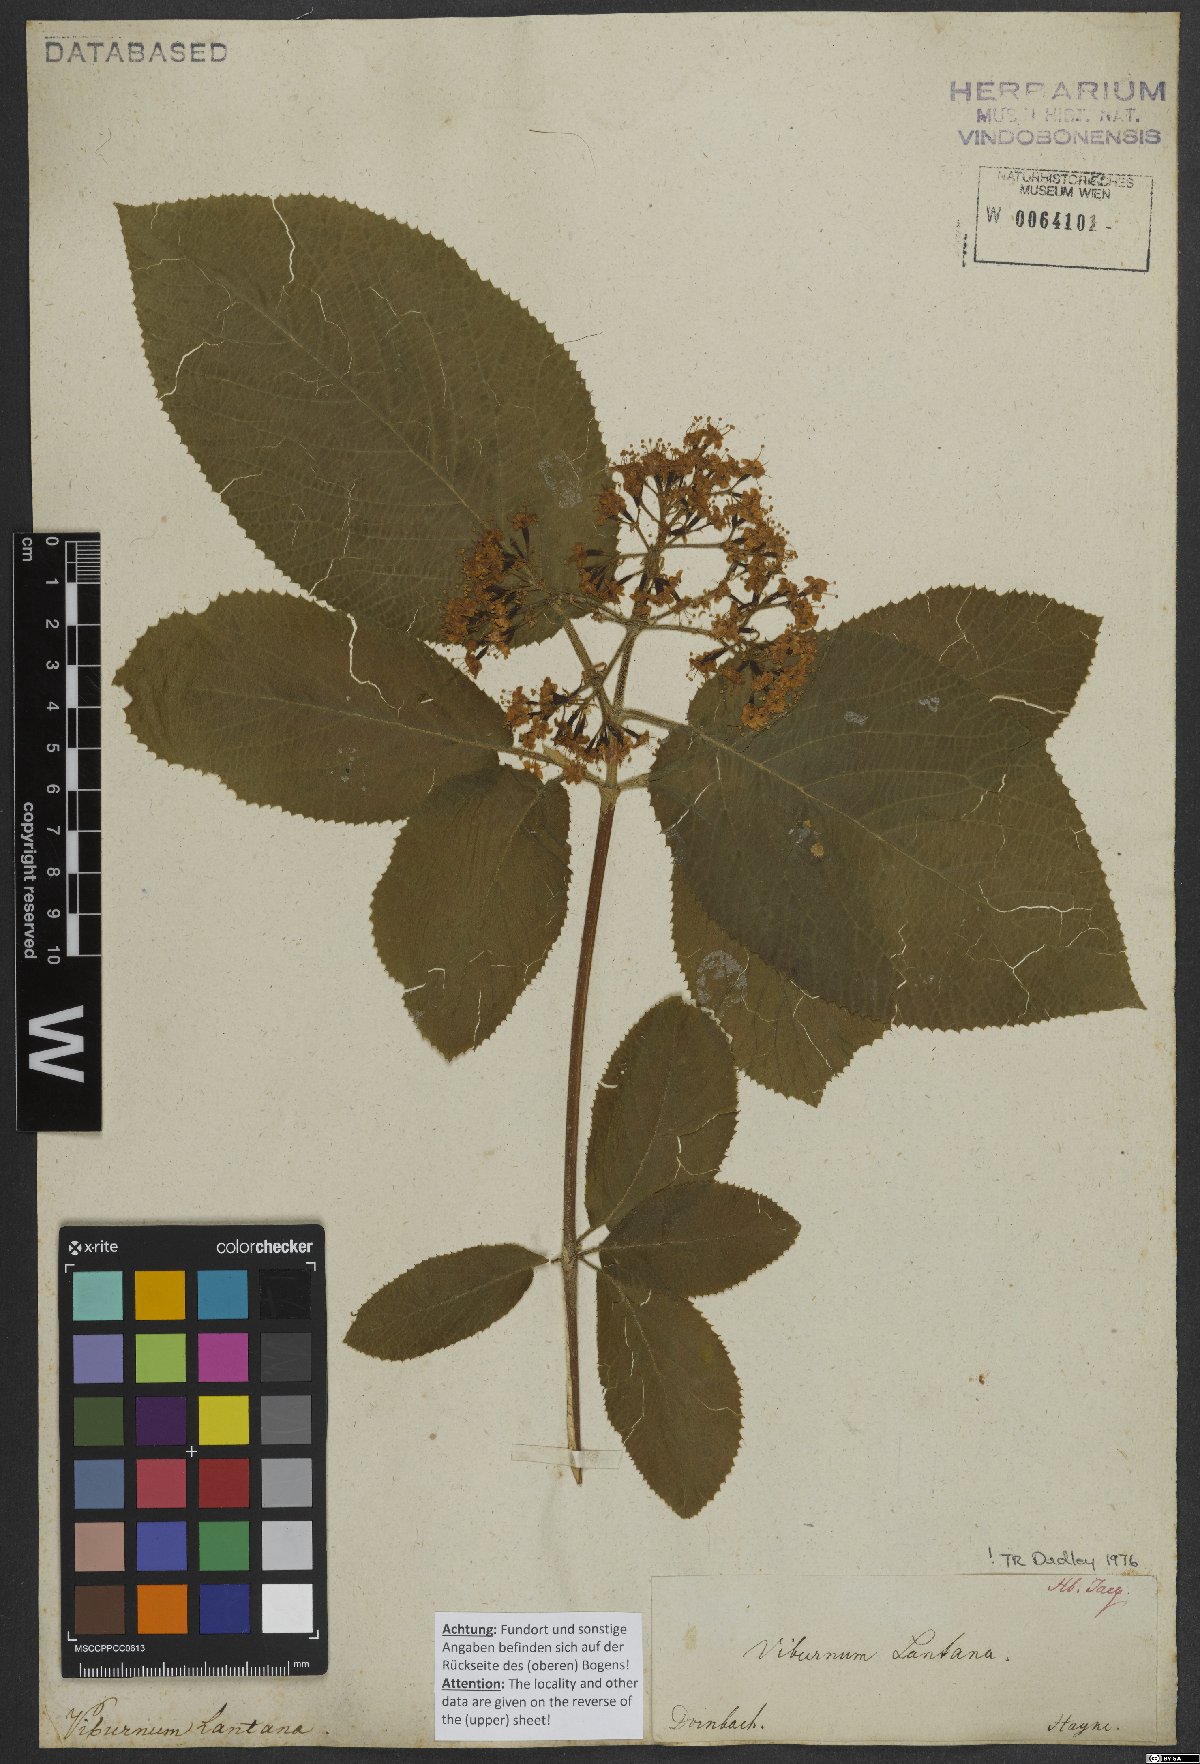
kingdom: Plantae
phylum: Tracheophyta
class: Magnoliopsida
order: Dipsacales
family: Viburnaceae
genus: Viburnum
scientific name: Viburnum lantana
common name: Wayfaring tree
